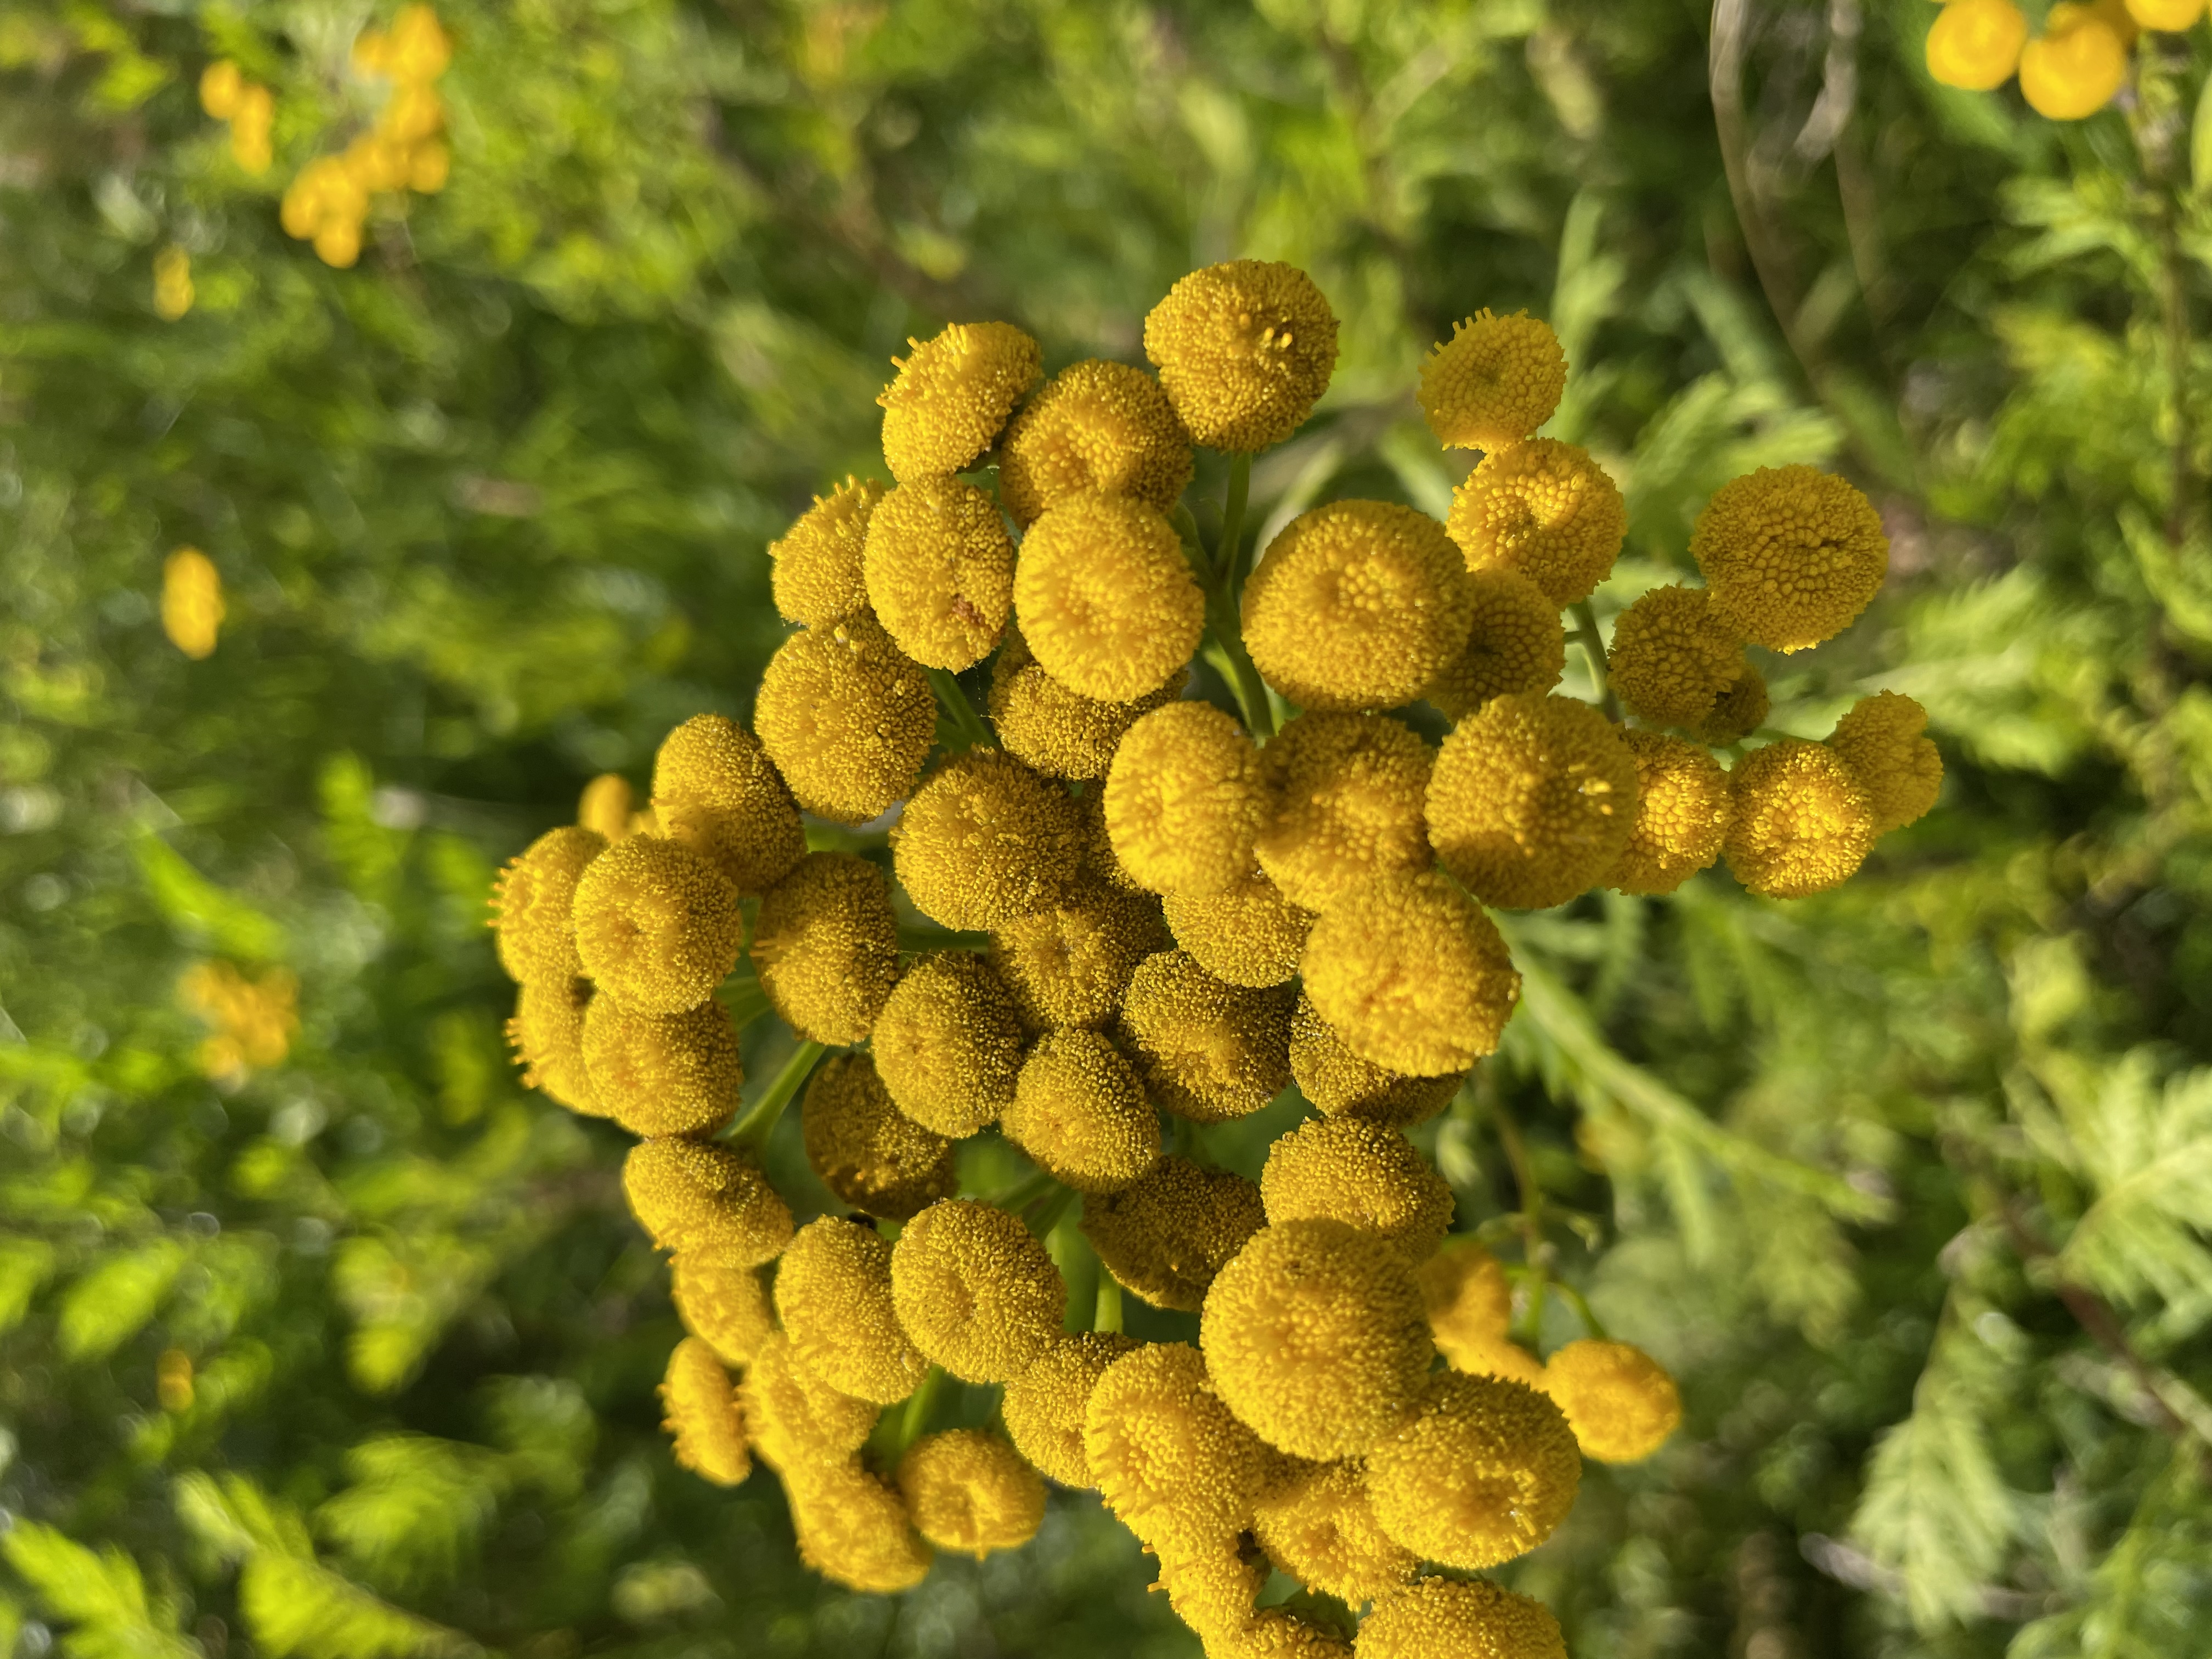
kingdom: Plantae
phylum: Tracheophyta
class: Magnoliopsida
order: Asterales
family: Asteraceae
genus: Tanacetum
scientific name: Tanacetum vulgare
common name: Rejnfan
